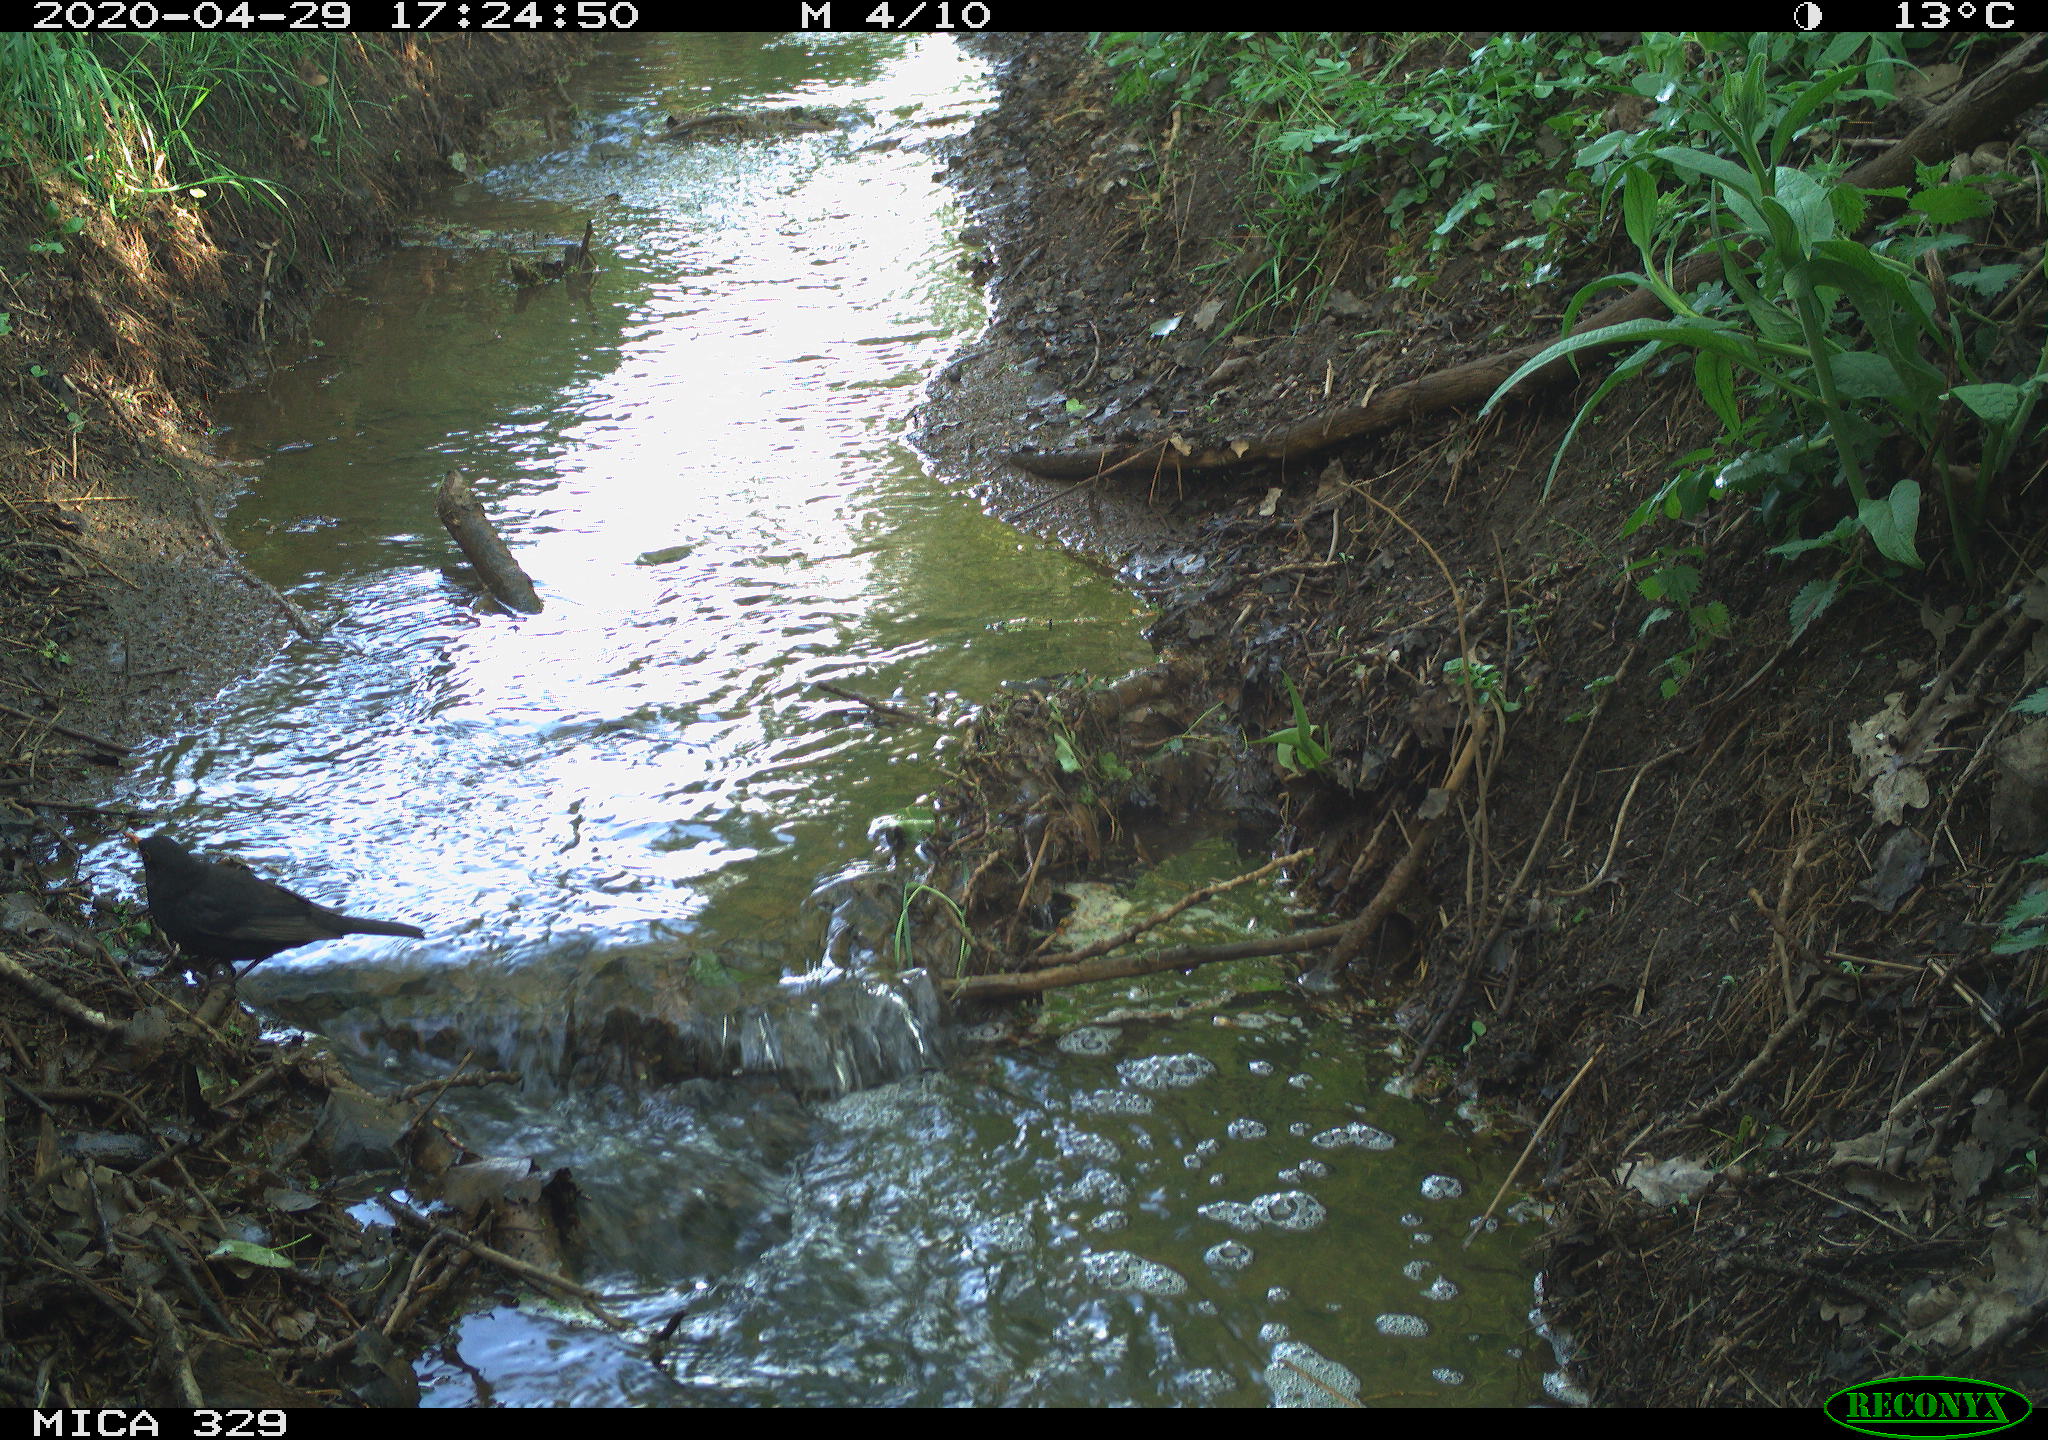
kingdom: Animalia
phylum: Chordata
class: Aves
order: Passeriformes
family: Turdidae
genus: Turdus
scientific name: Turdus merula
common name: Common blackbird
